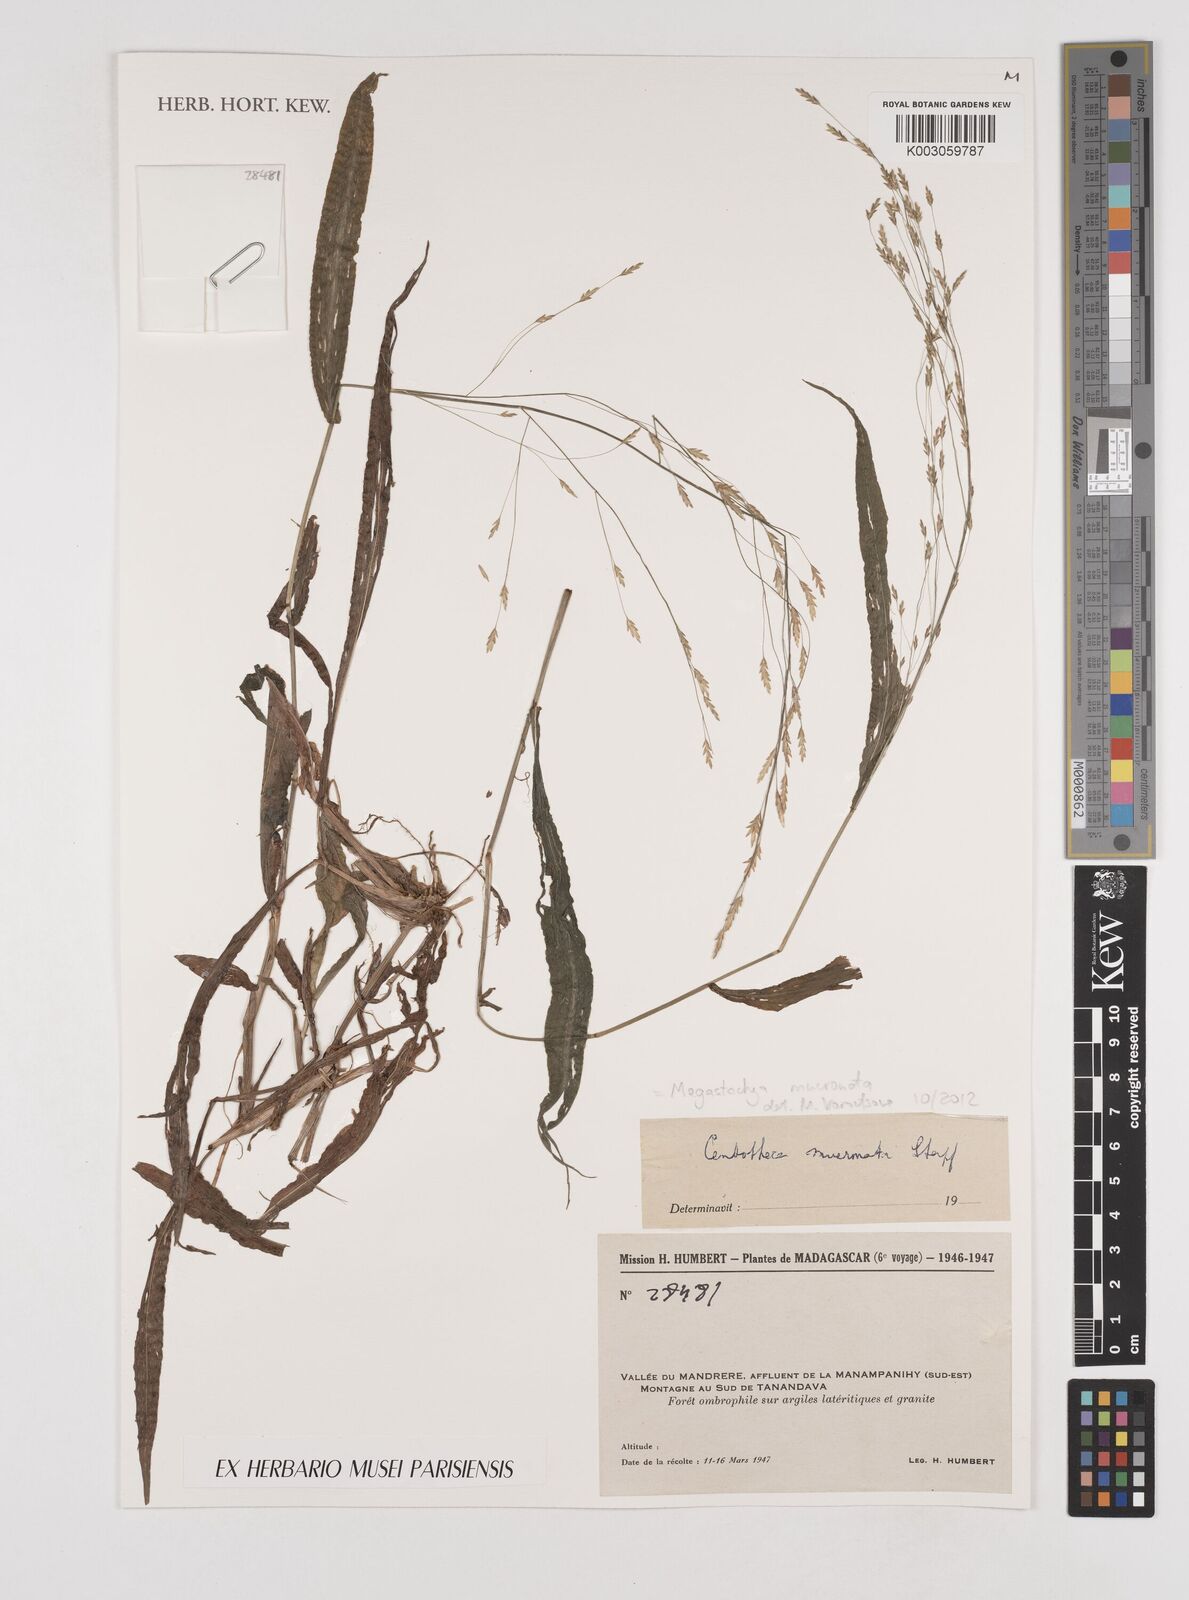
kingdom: Plantae
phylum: Tracheophyta
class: Liliopsida
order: Poales
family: Poaceae
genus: Megastachya
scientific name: Megastachya mucronata
